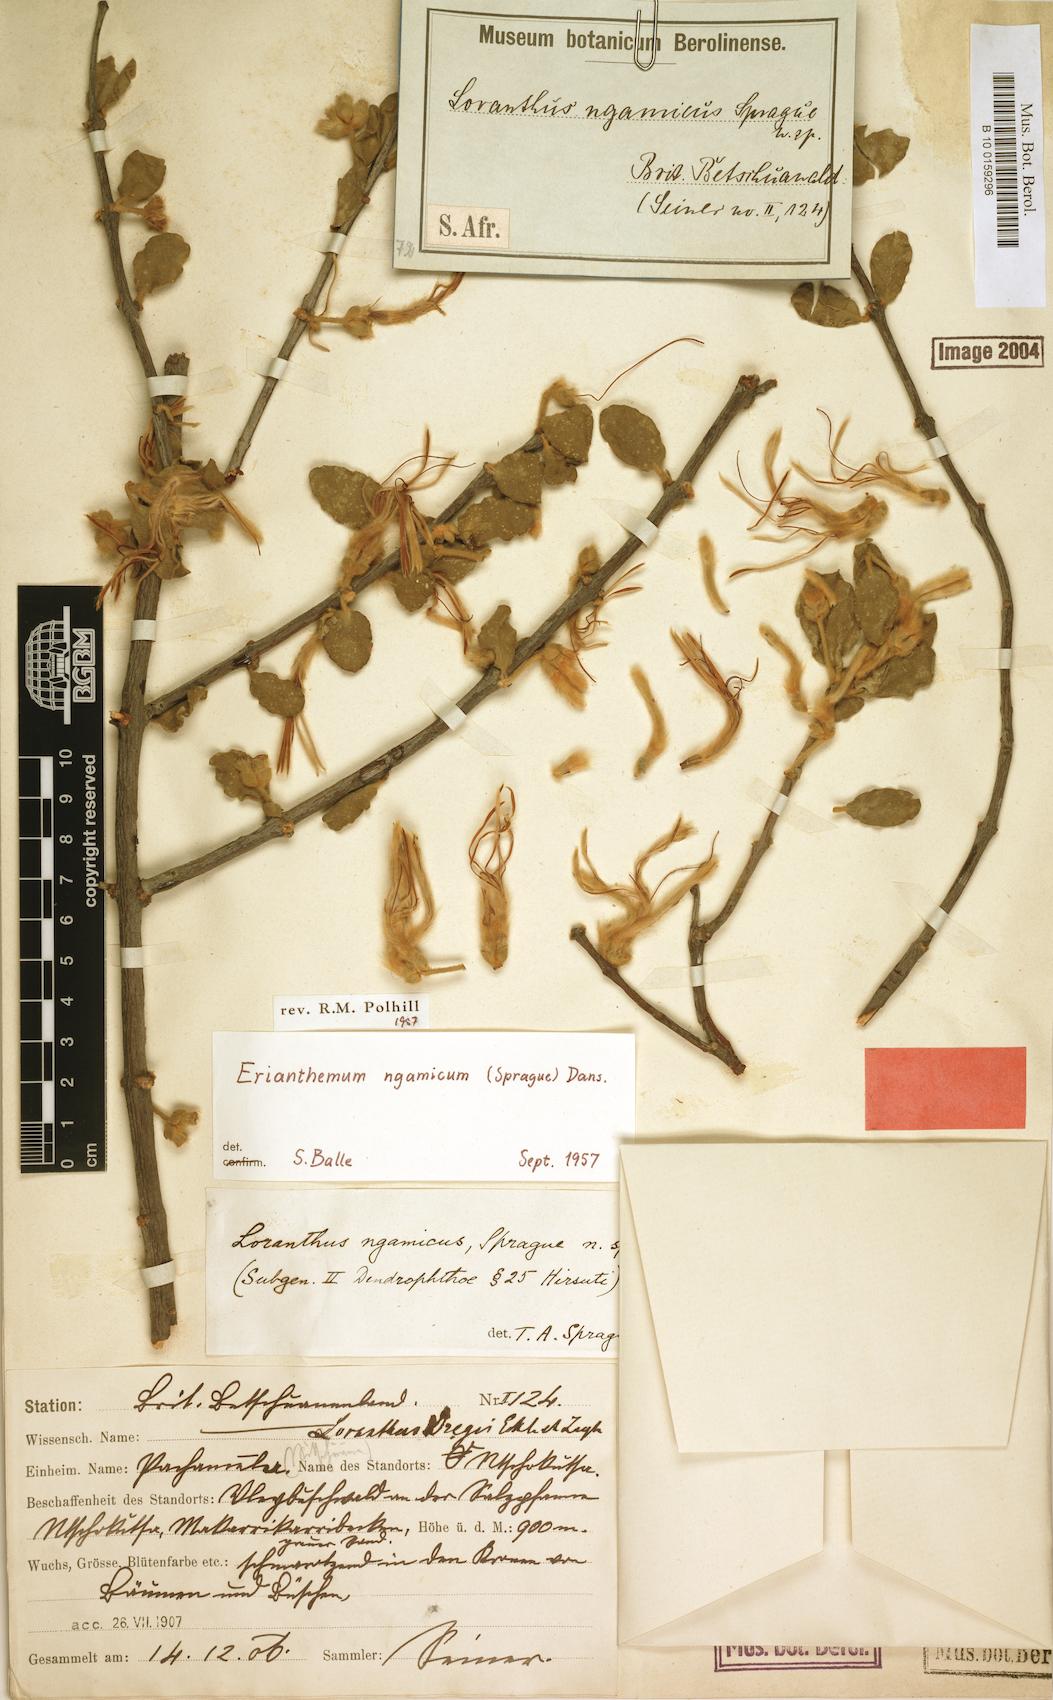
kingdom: Plantae
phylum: Tracheophyta
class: Magnoliopsida
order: Santalales
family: Loranthaceae
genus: Erianthemum
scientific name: Erianthemum ngamicum
